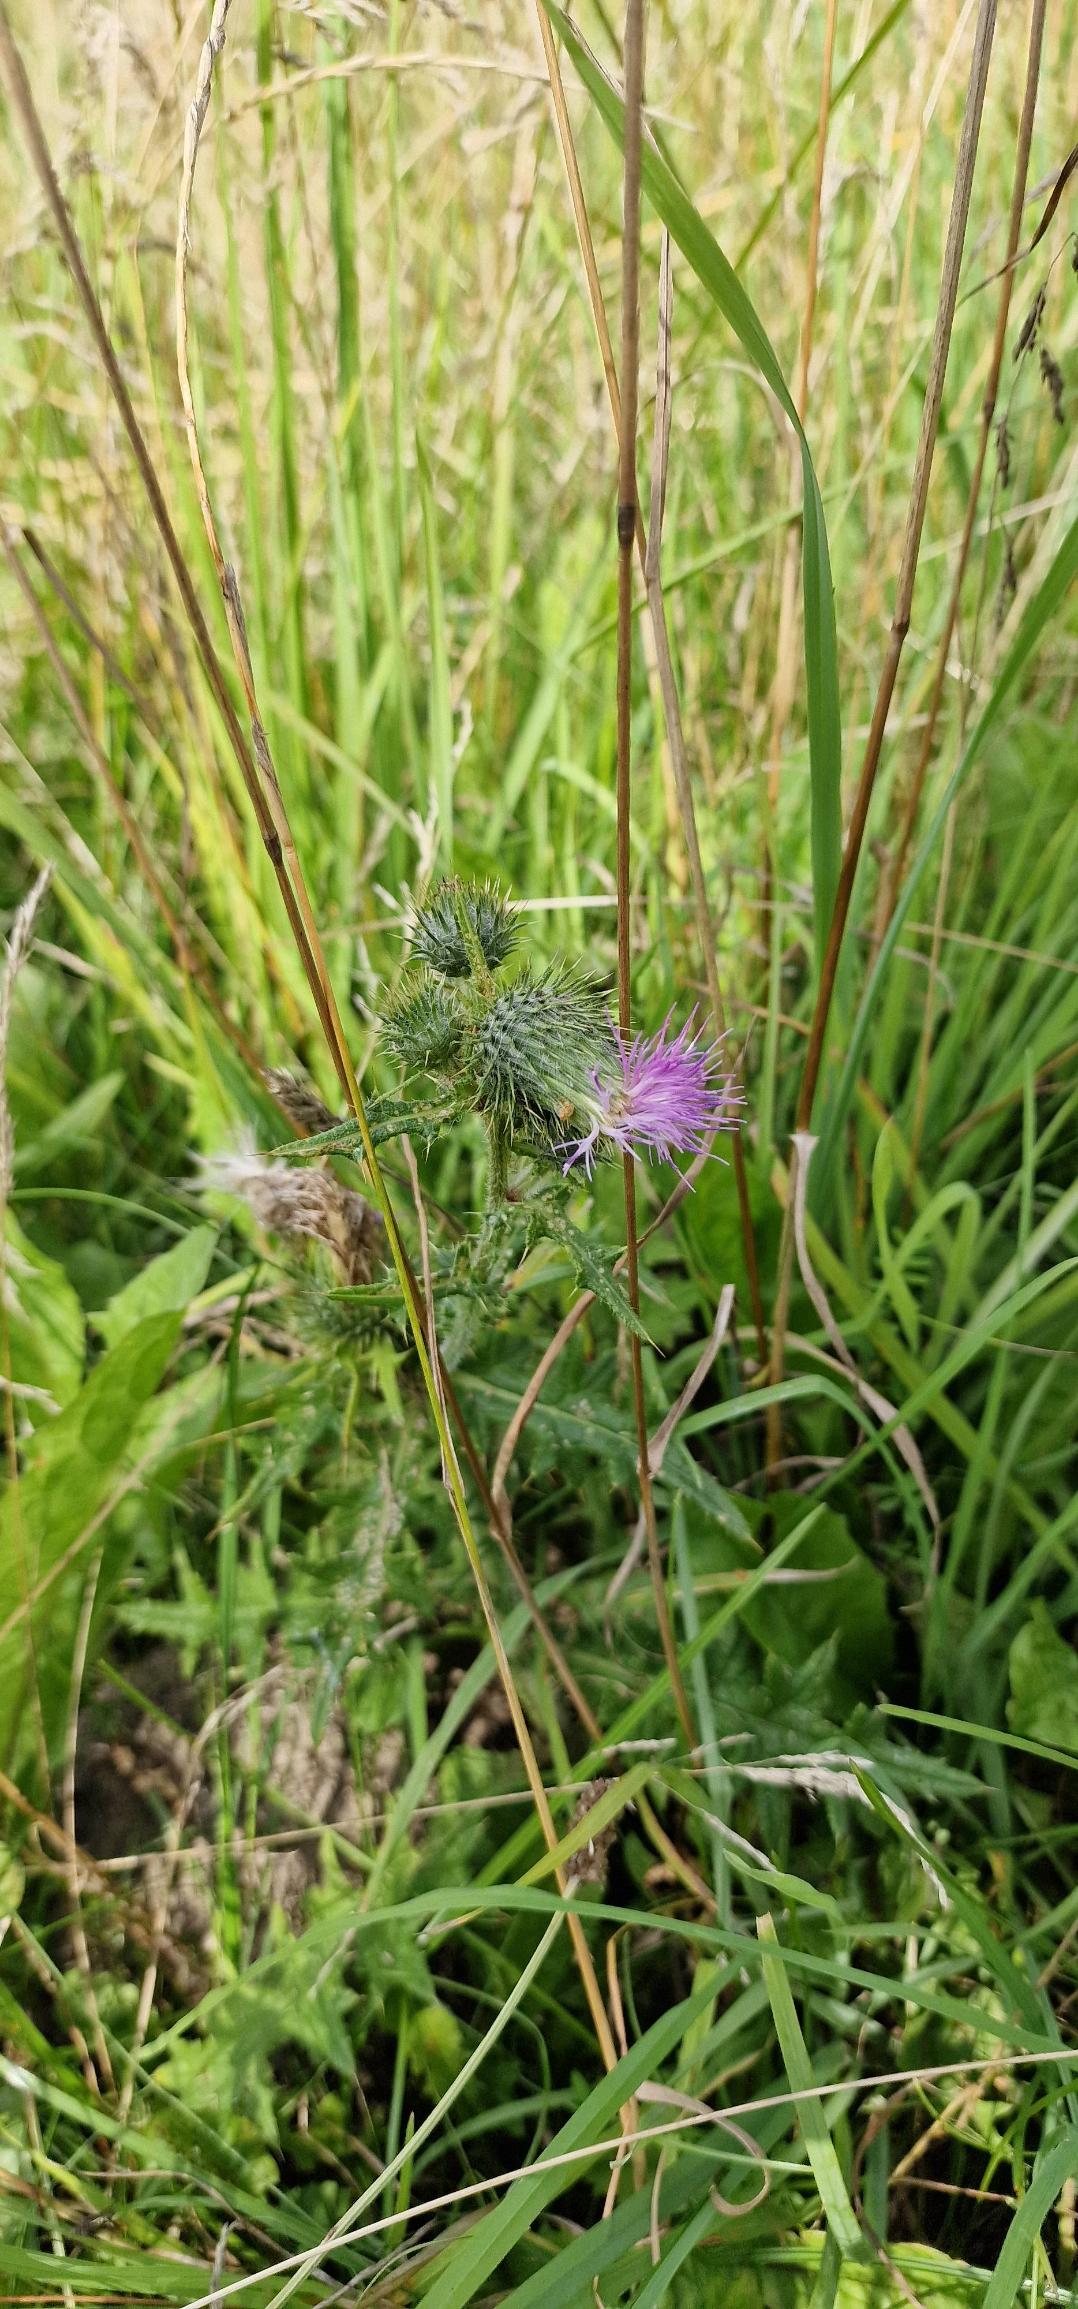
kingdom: Plantae
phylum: Tracheophyta
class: Magnoliopsida
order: Asterales
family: Asteraceae
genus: Cirsium
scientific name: Cirsium vulgare
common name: Horse-tidsel
